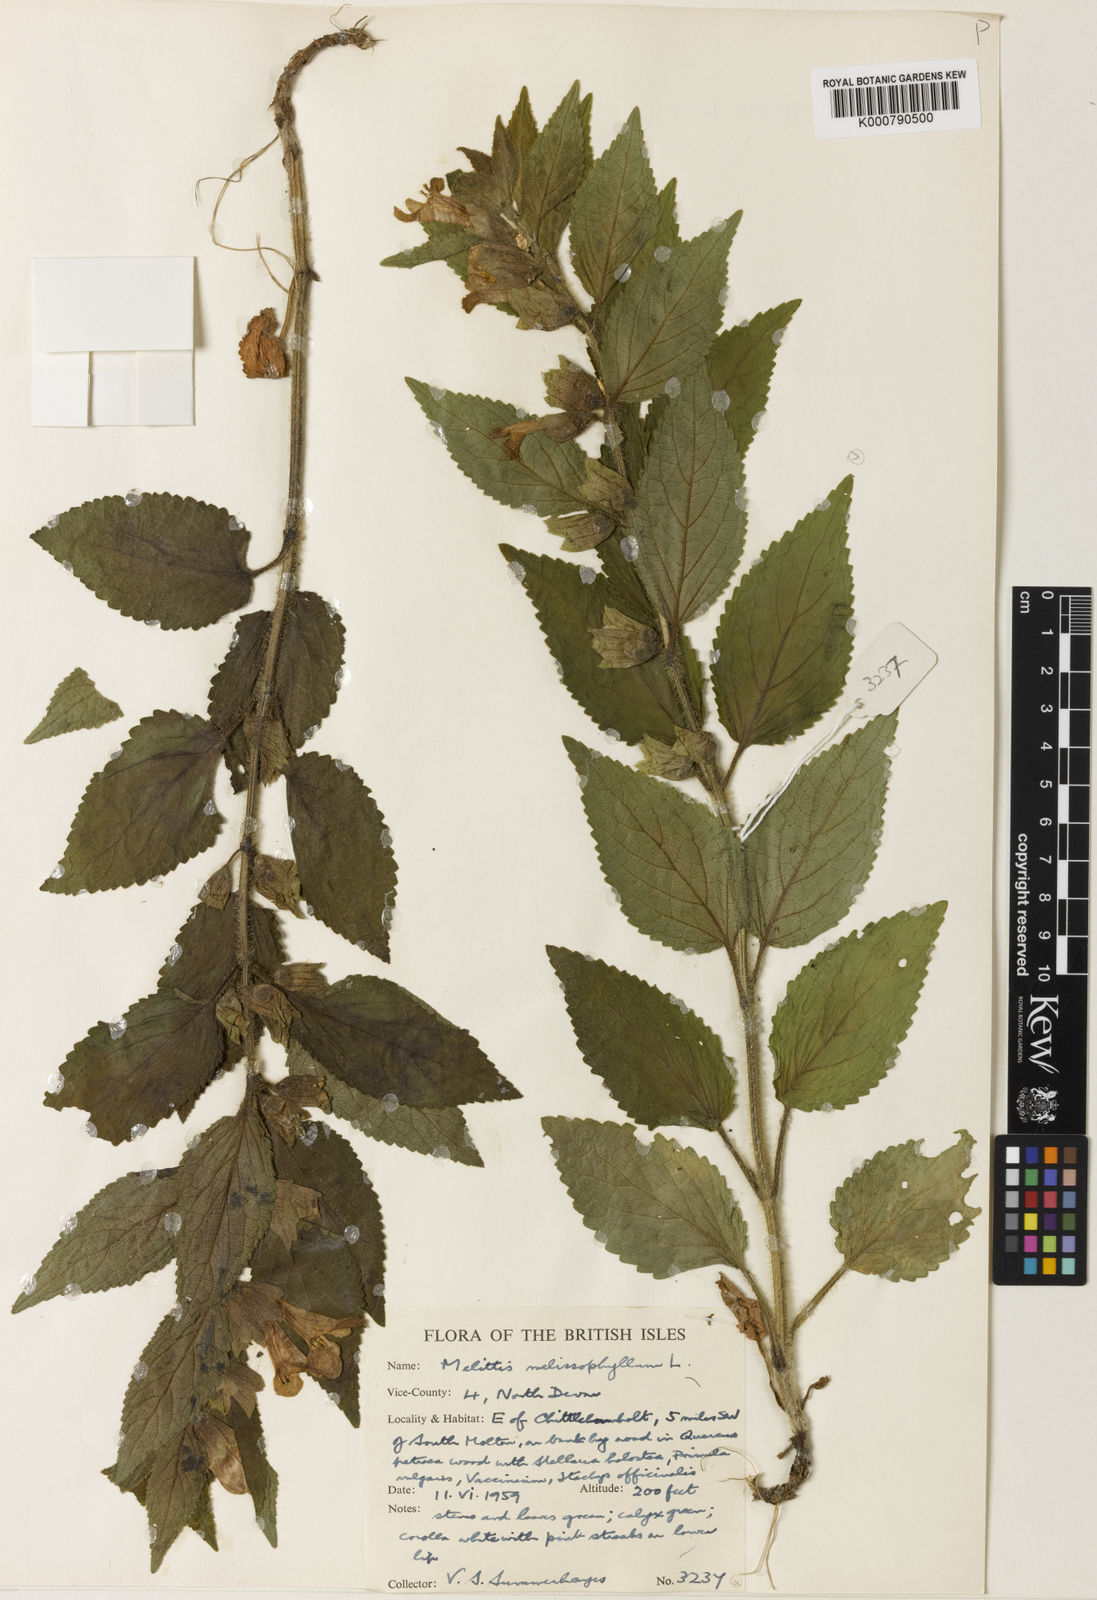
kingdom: Plantae
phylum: Tracheophyta
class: Magnoliopsida
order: Lamiales
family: Lamiaceae
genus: Melittis
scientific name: Melittis melissophyllum
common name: Bastard balm
